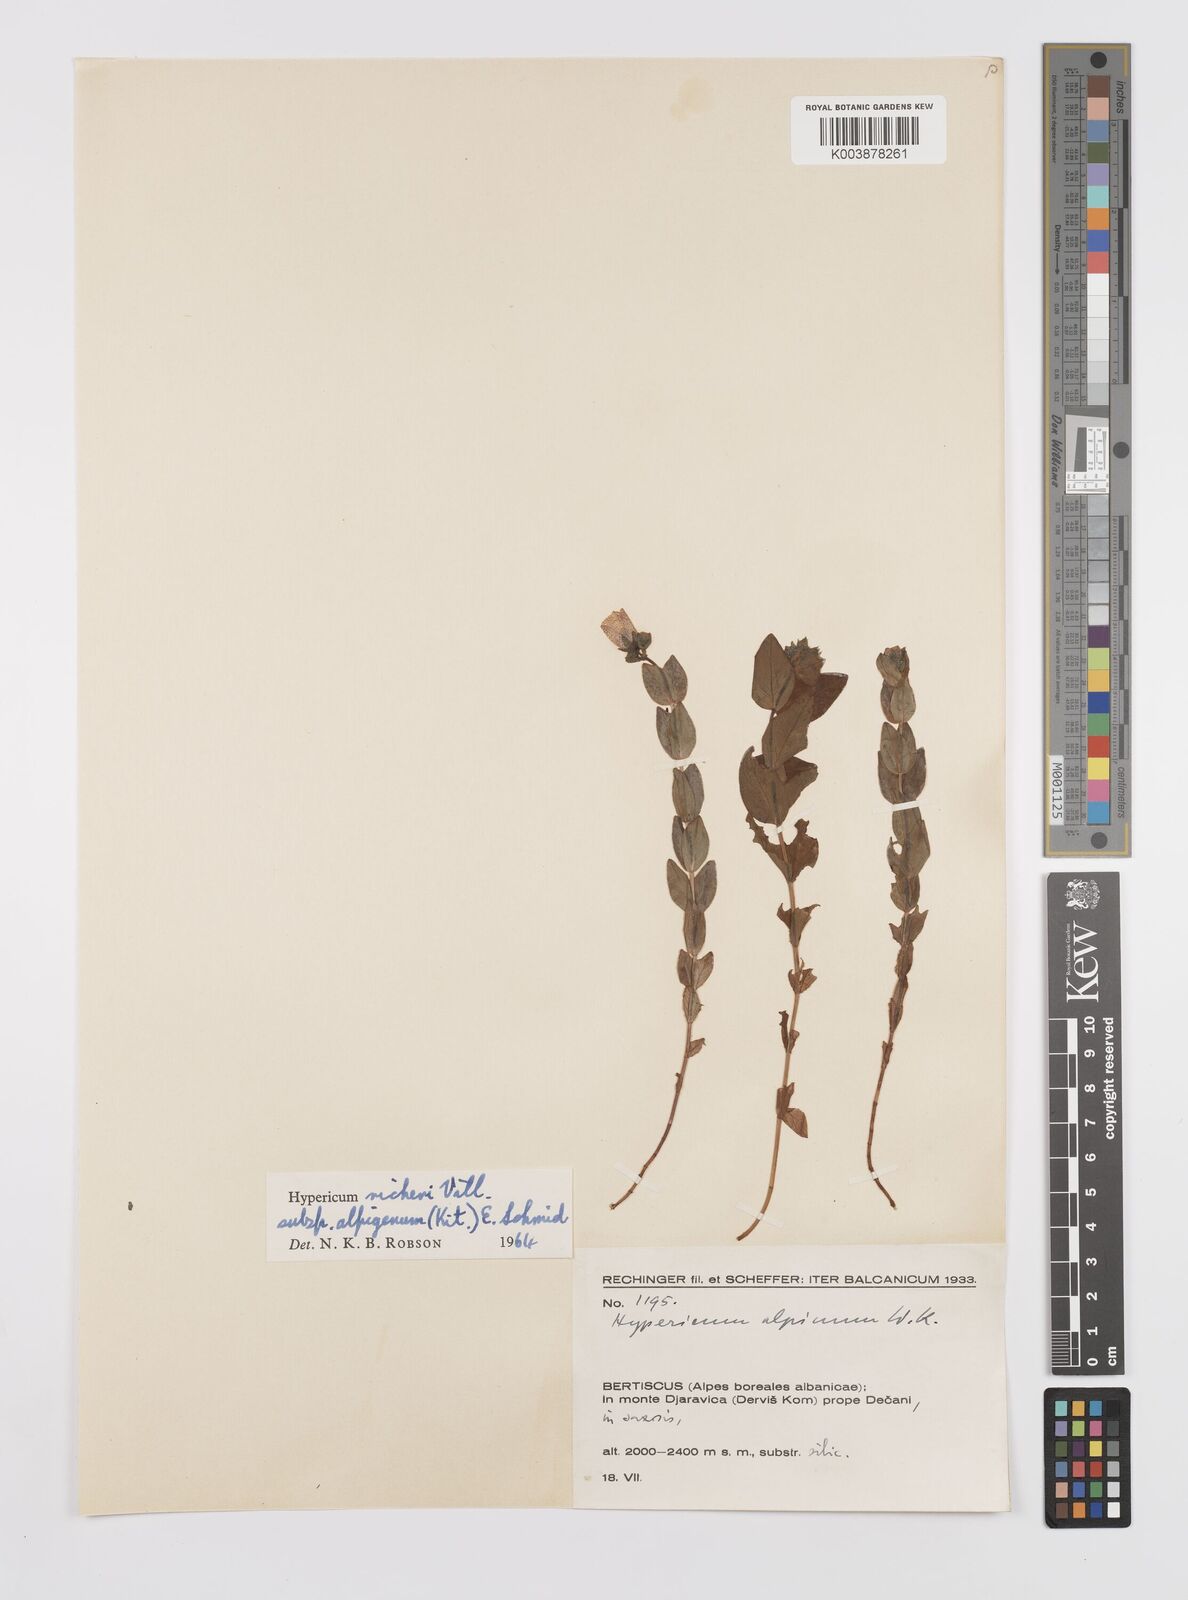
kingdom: Plantae
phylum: Tracheophyta
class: Magnoliopsida
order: Malpighiales
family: Hypericaceae
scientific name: Hypericaceae
